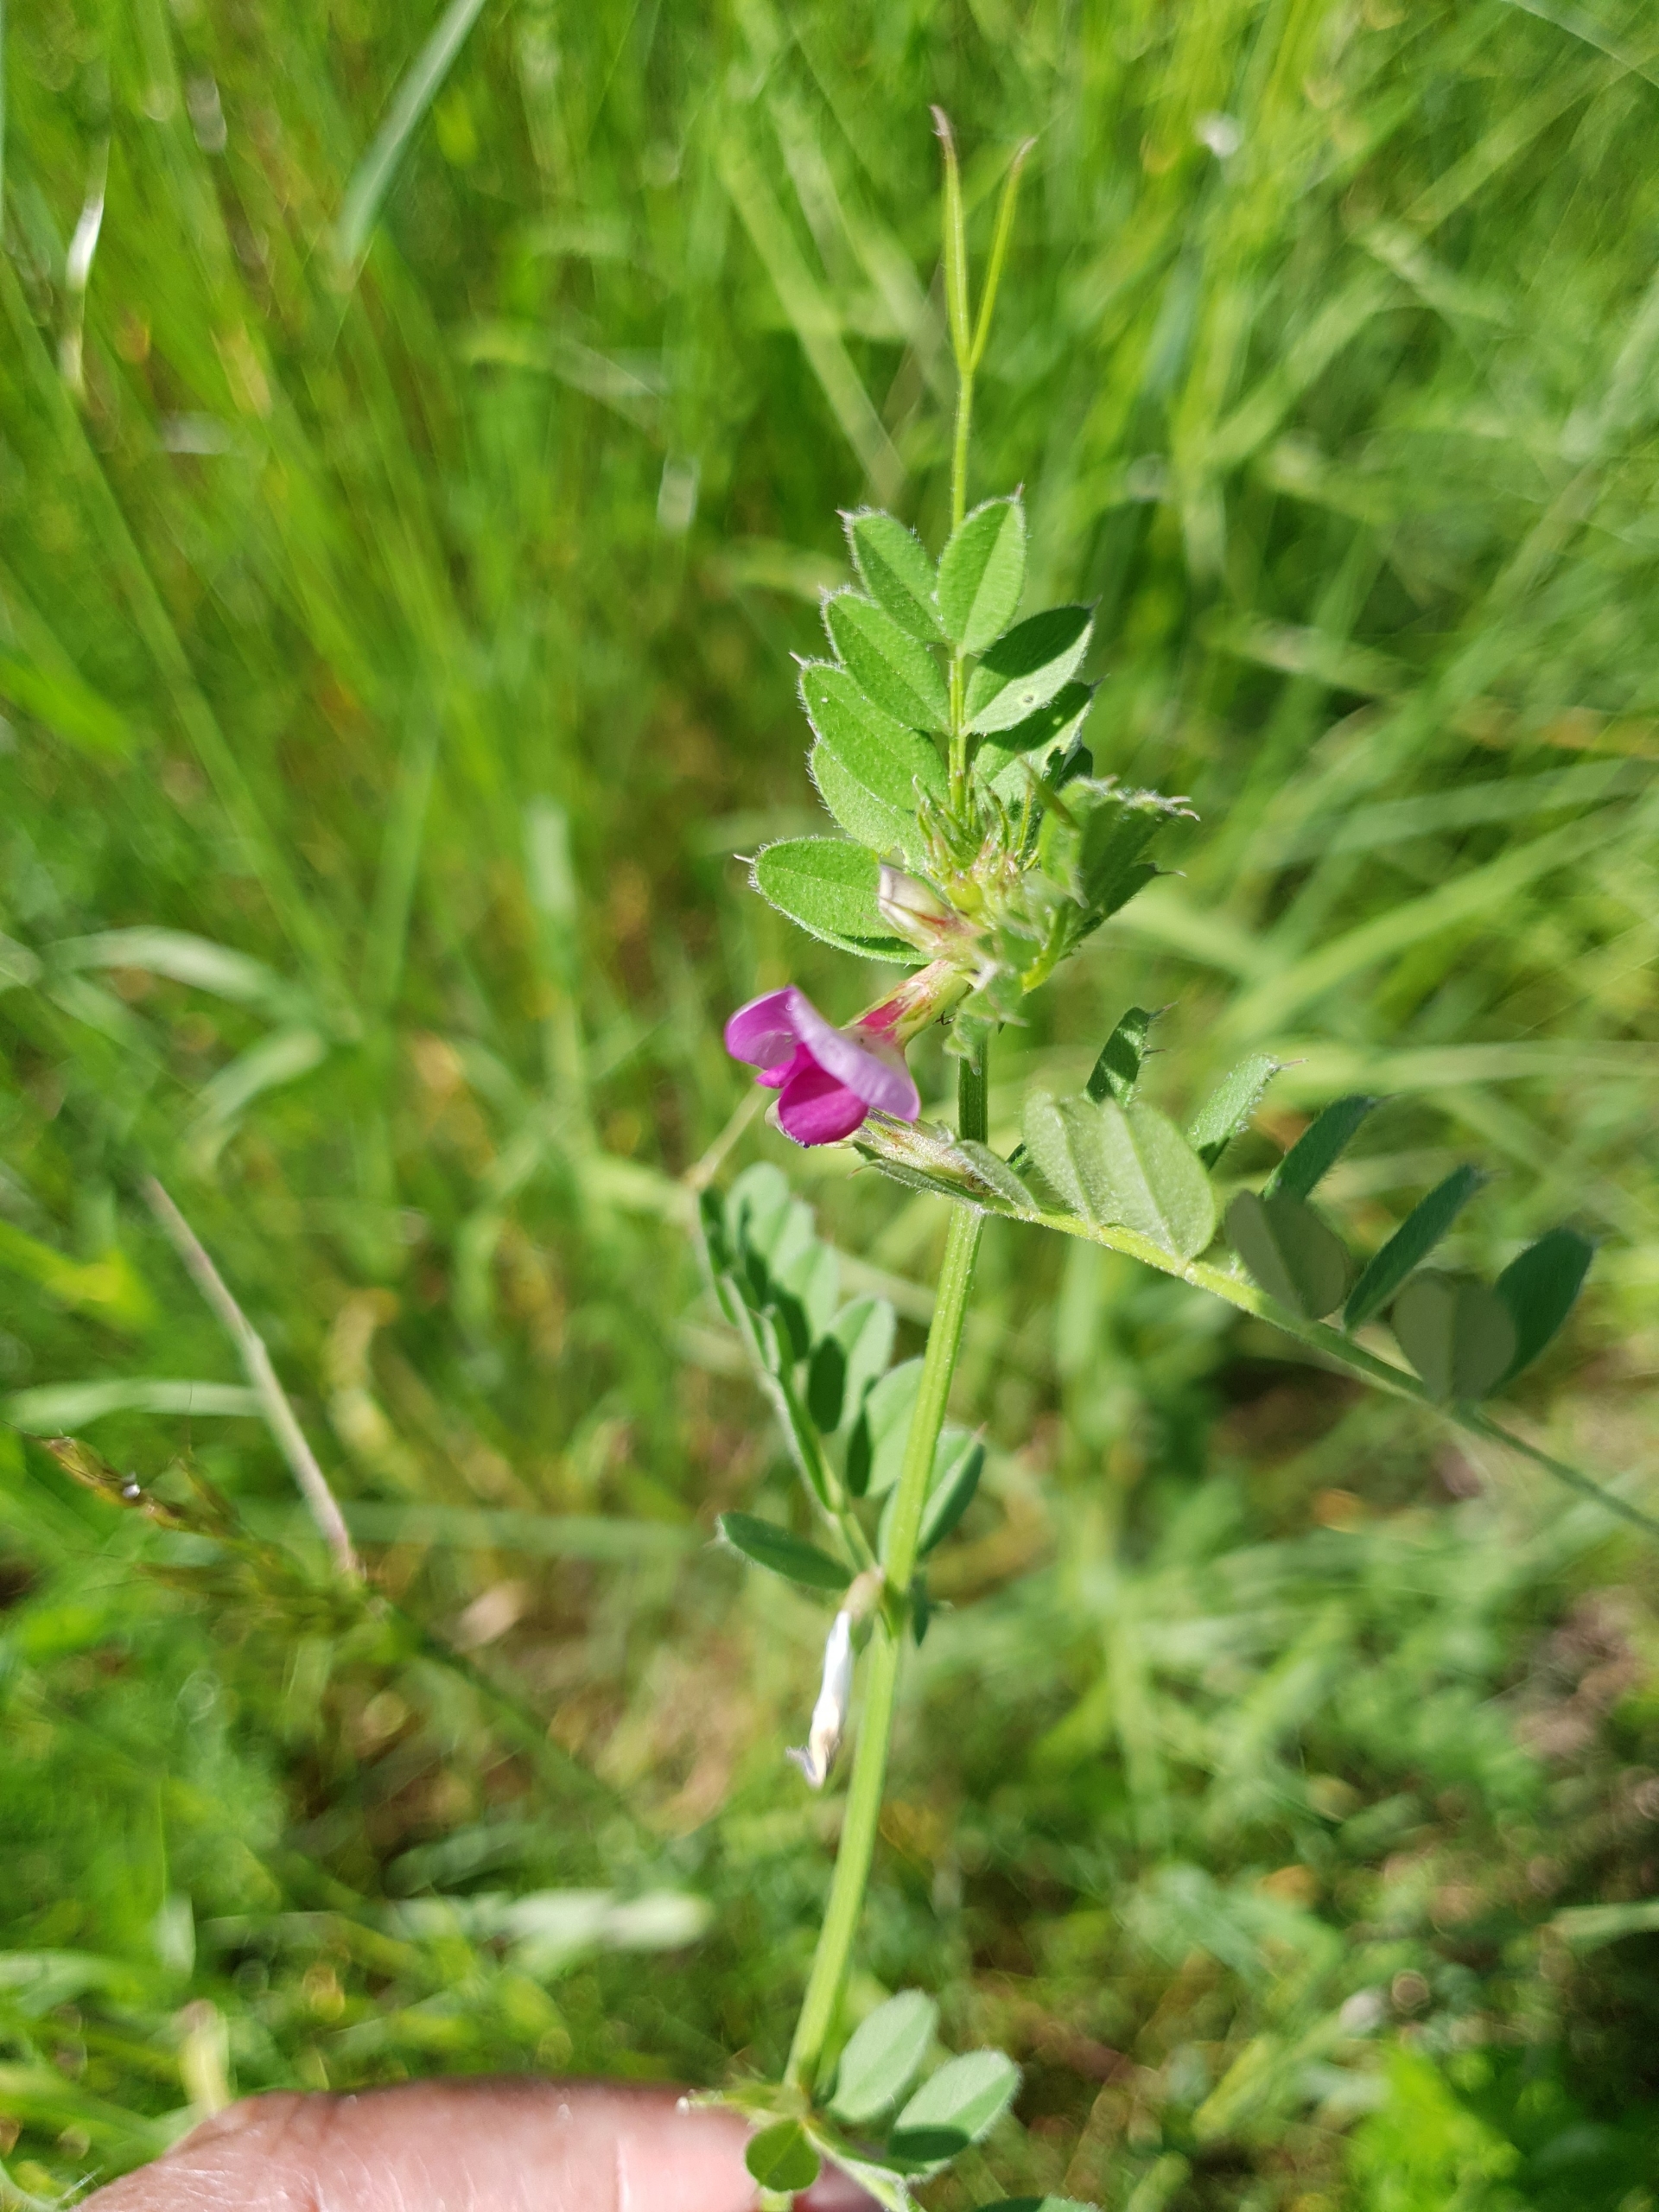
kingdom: Plantae
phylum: Tracheophyta
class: Magnoliopsida
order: Fabales
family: Fabaceae
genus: Vicia
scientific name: Vicia sativa
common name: Foder-vikke
